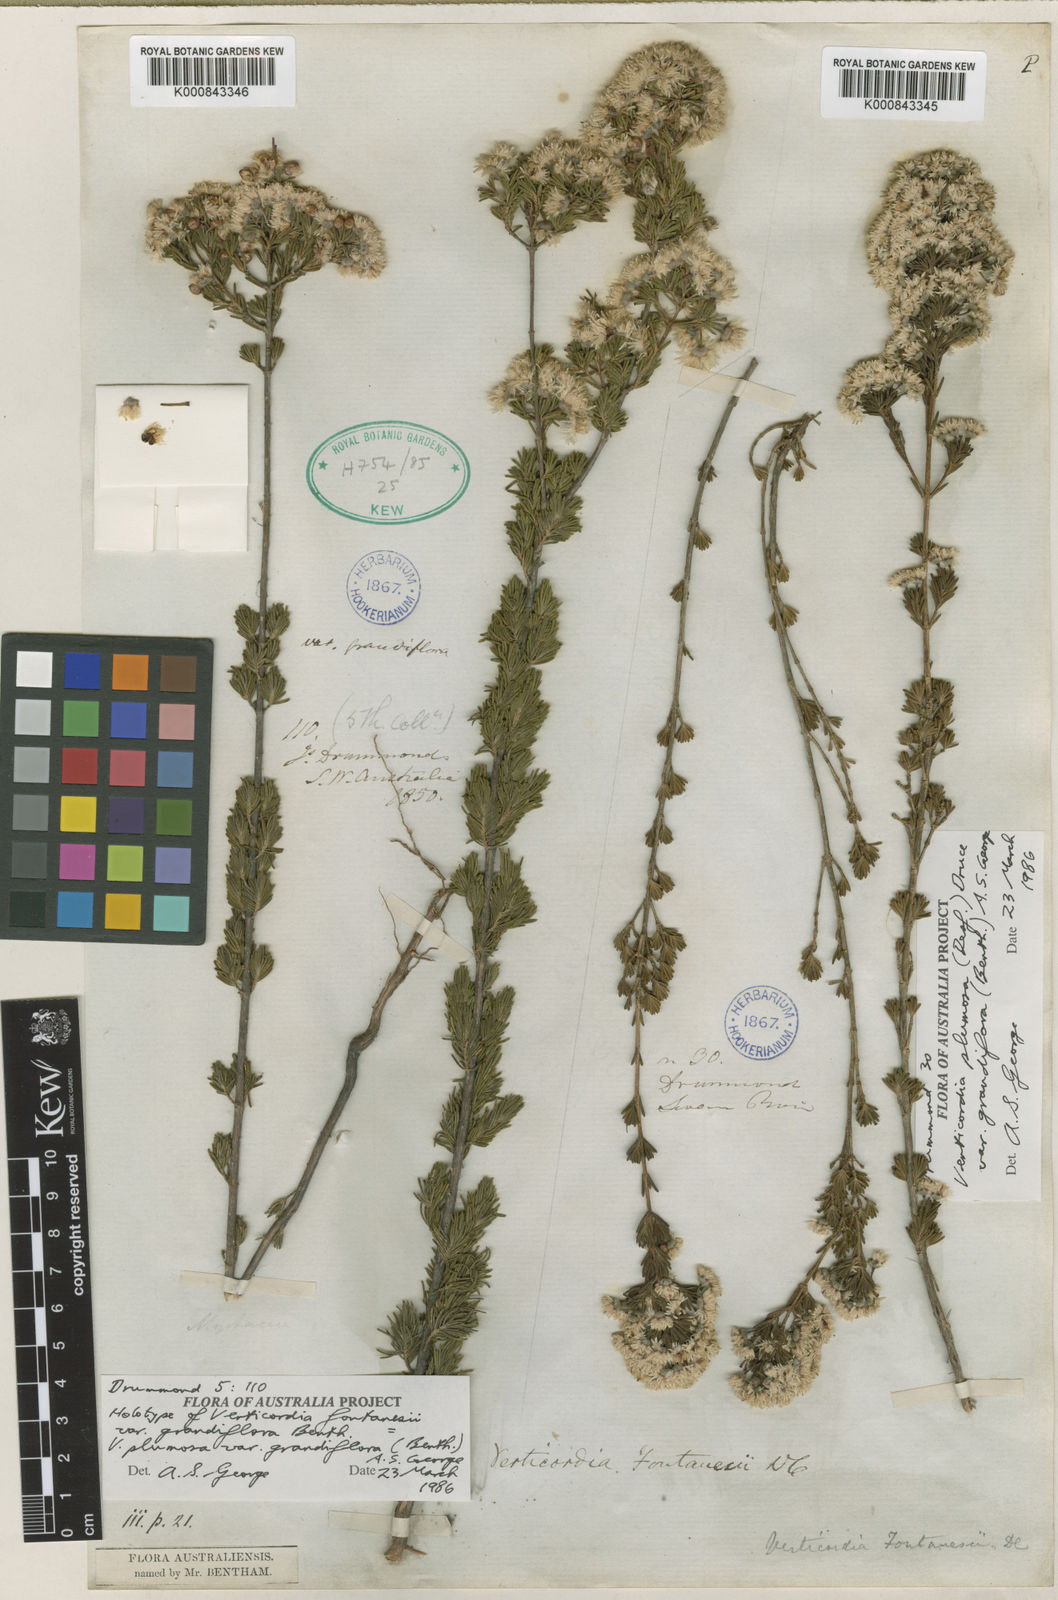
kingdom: Plantae
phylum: Tracheophyta
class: Magnoliopsida
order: Myrtales
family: Myrtaceae
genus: Verticordia
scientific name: Verticordia plumosa
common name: Plume feather-flower
